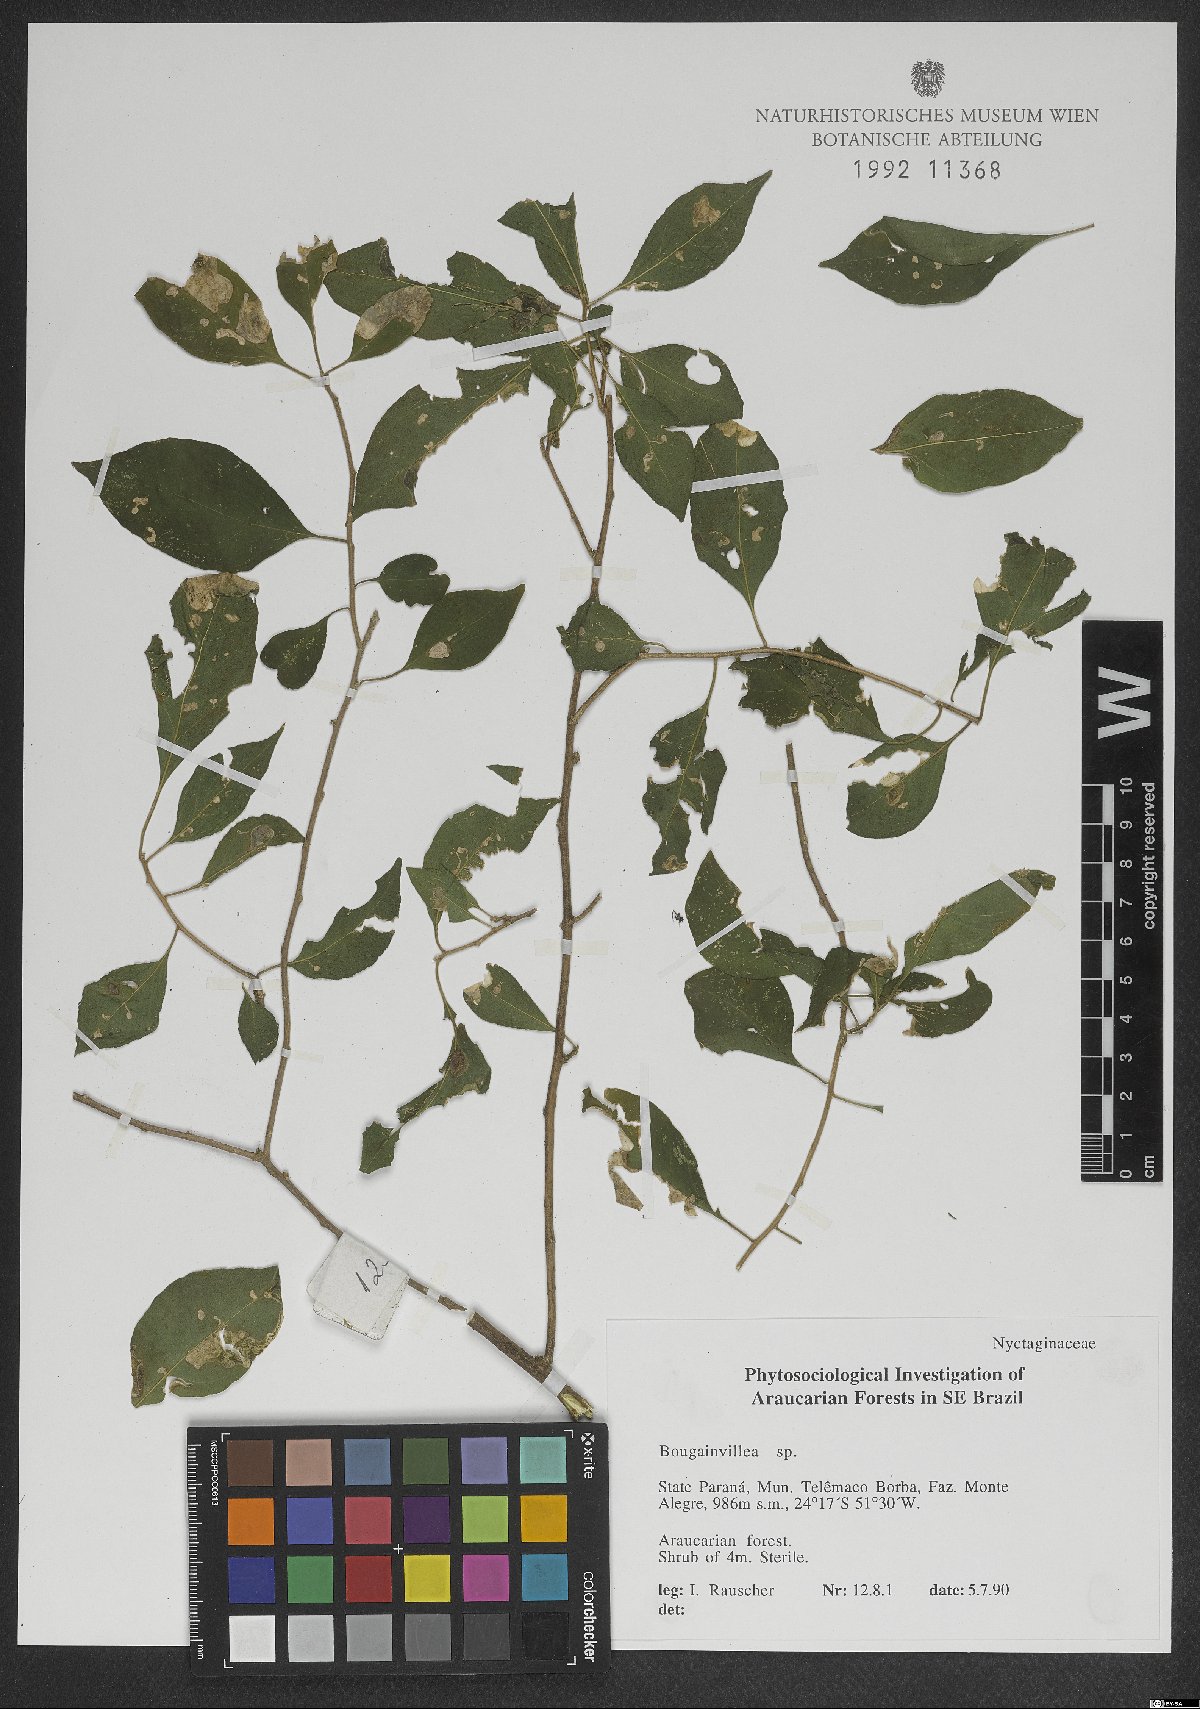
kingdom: Plantae
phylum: Tracheophyta
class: Magnoliopsida
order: Caryophyllales
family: Nyctaginaceae
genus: Bougainvillea
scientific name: Bougainvillea
